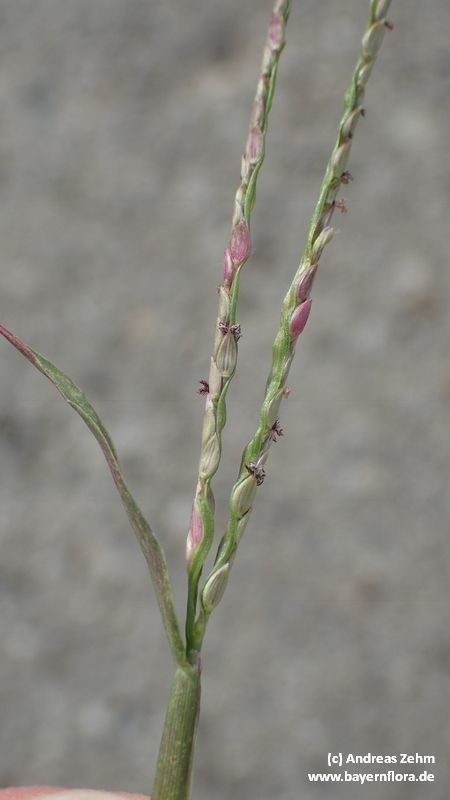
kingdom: Plantae
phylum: Tracheophyta
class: Liliopsida
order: Poales
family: Poaceae
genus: Digitaria
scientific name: Digitaria ischaemum
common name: Smooth crabgrass
